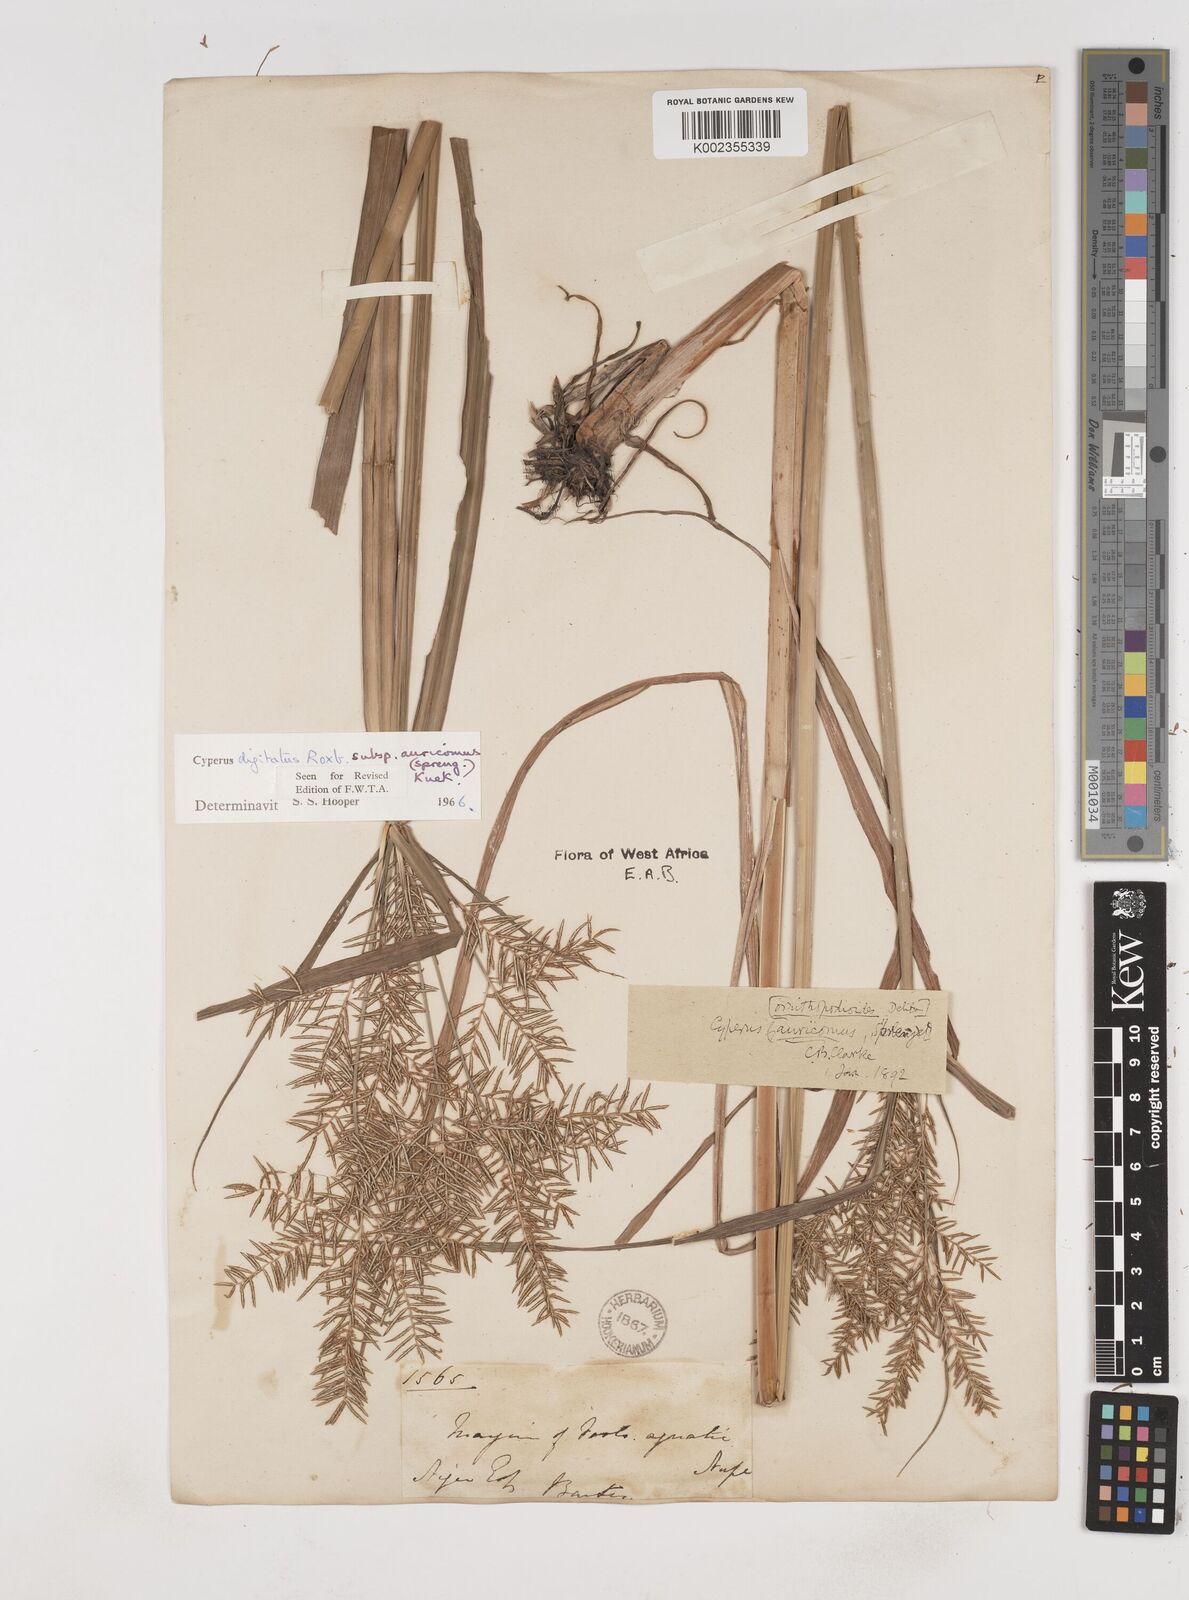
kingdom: Plantae
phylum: Tracheophyta
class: Liliopsida
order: Poales
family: Cyperaceae
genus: Cyperus
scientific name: Cyperus digitatus
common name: Finger flatsedge
